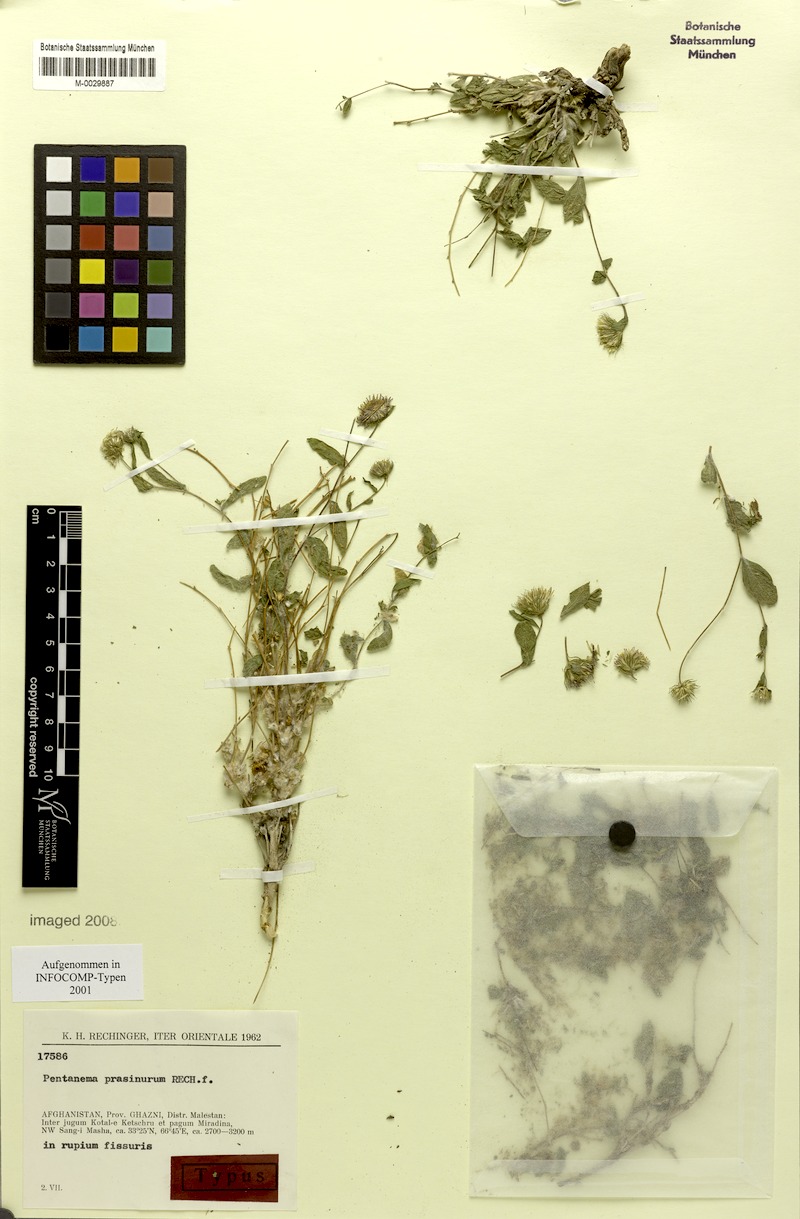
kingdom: Plantae
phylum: Tracheophyta
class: Magnoliopsida
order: Asterales
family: Asteraceae
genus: Pentanema
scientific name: Pentanema prasinurum
